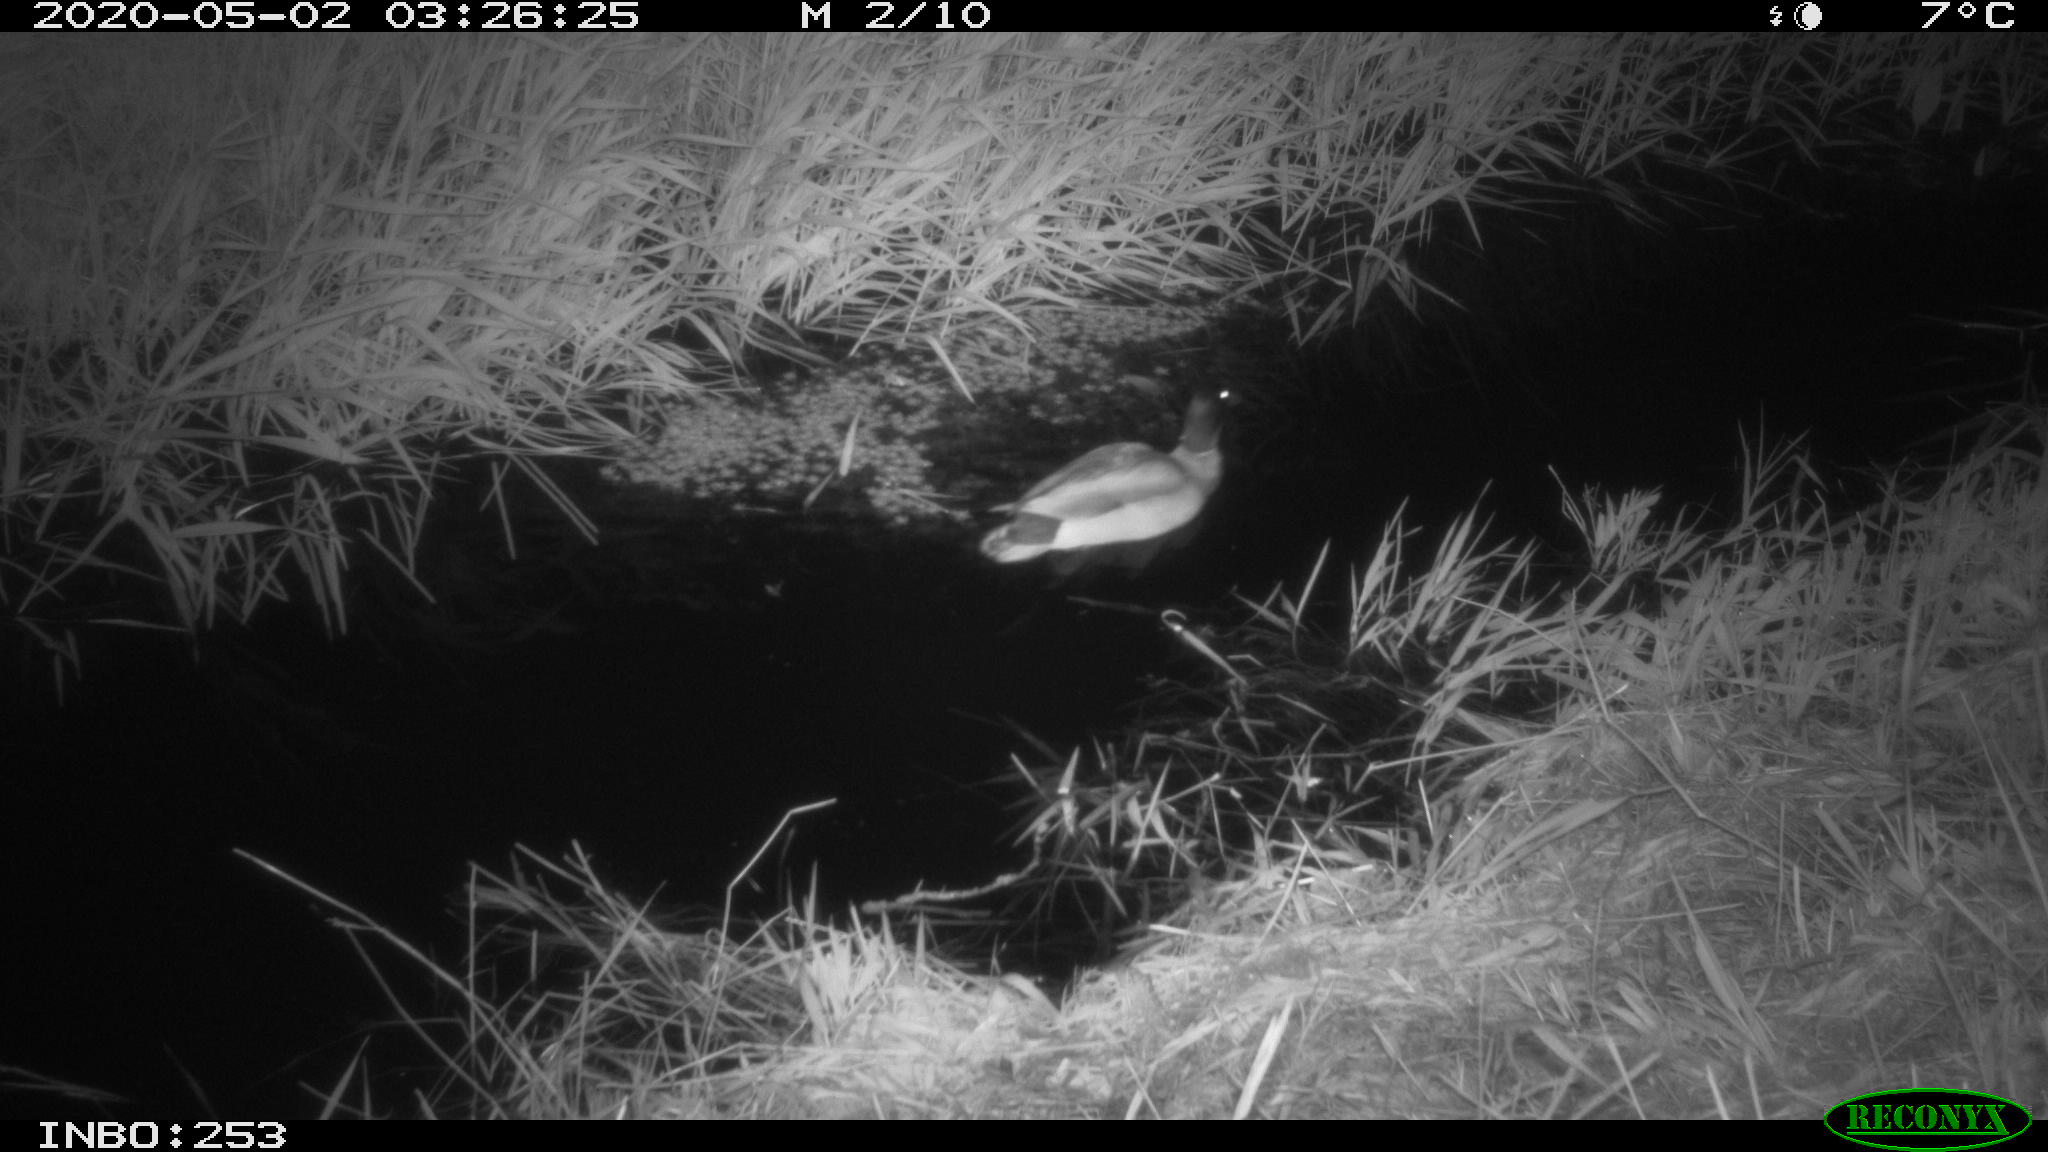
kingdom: Animalia
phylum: Chordata
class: Aves
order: Anseriformes
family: Anatidae
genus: Anas
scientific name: Anas platyrhynchos
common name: Mallard
